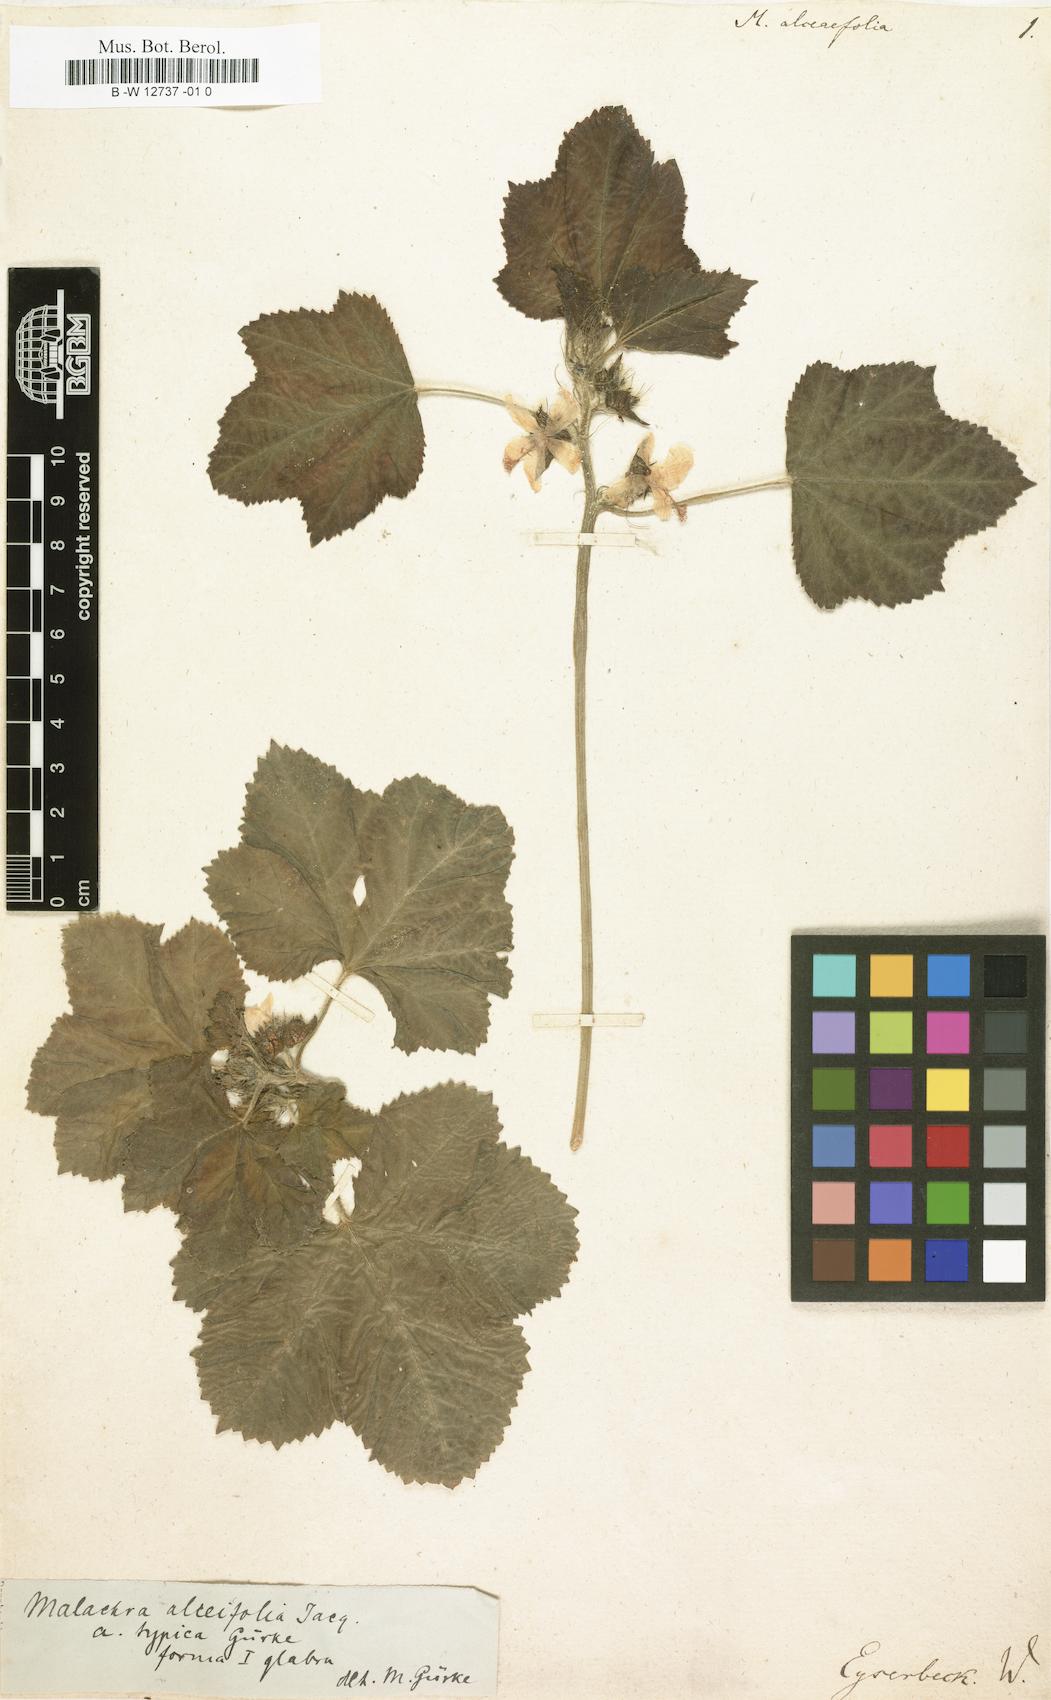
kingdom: Plantae
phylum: Tracheophyta
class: Magnoliopsida
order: Malvales
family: Malvaceae
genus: Malachra
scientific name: Malachra alceifolia
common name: Yellow leafbract
